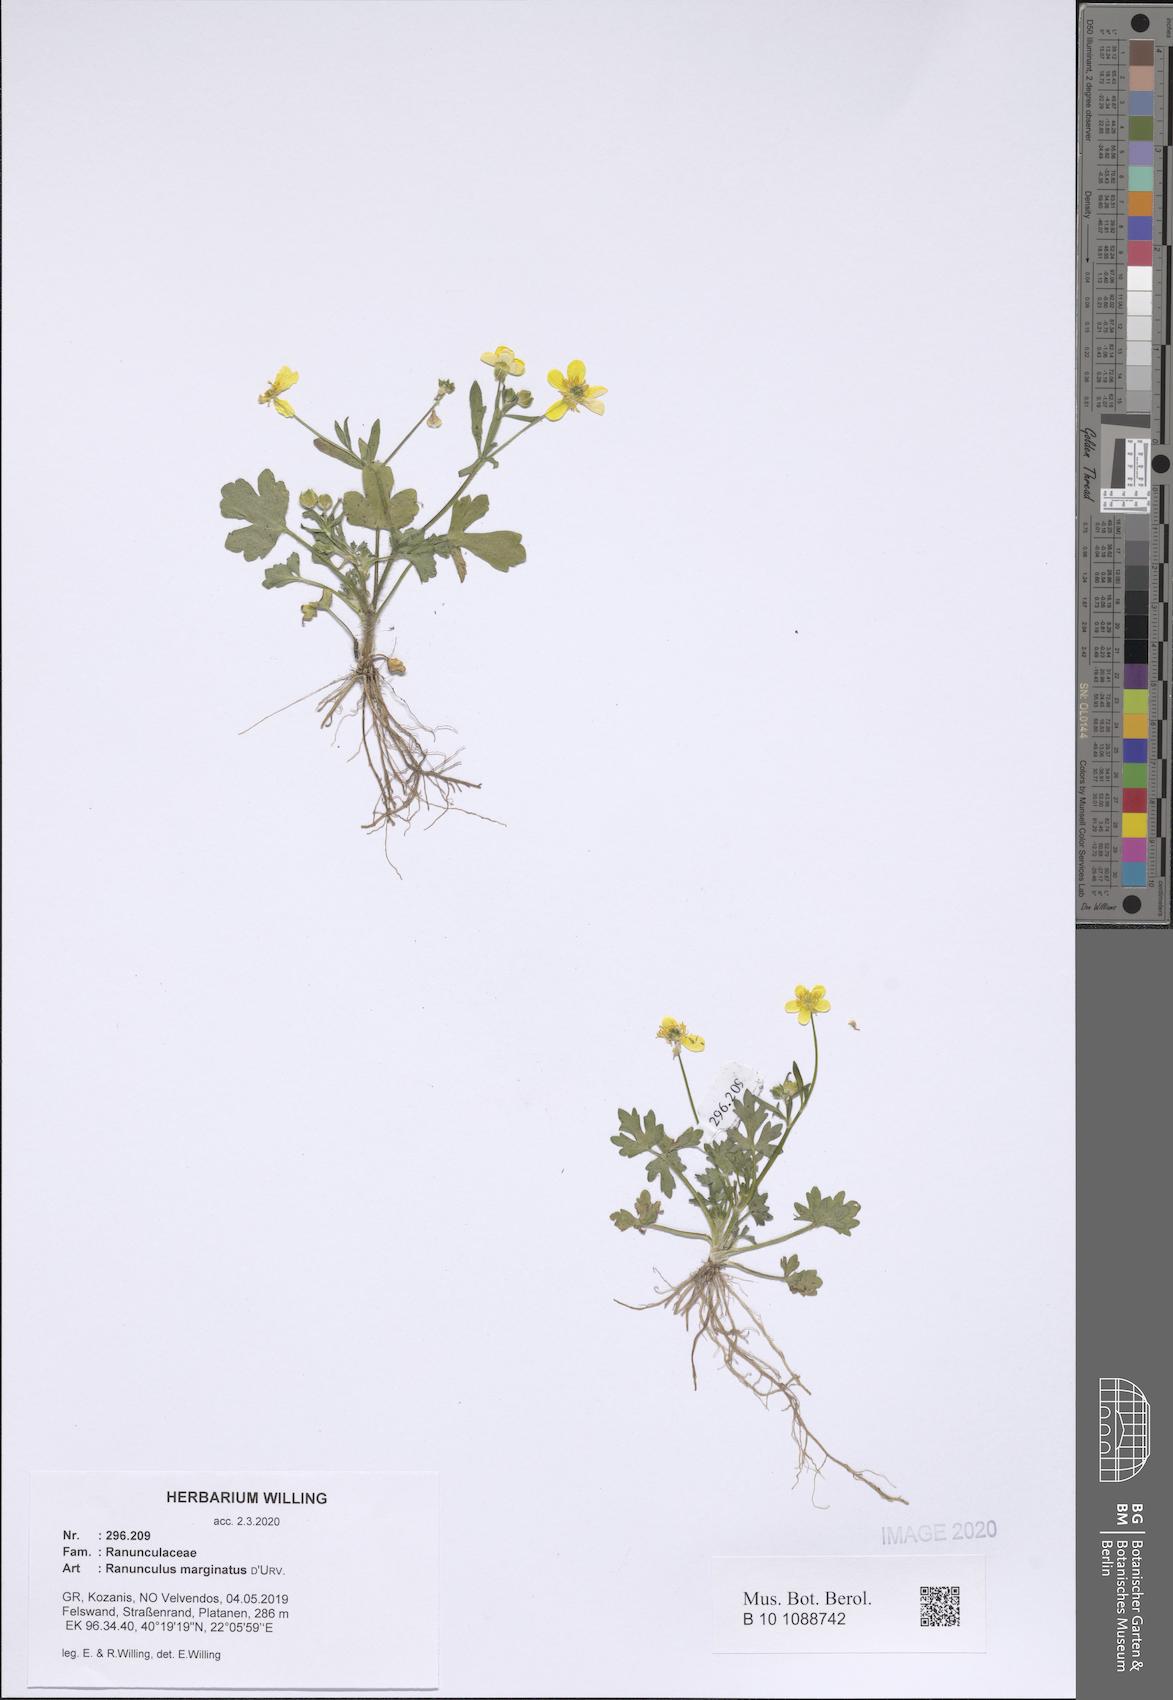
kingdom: Plantae
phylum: Tracheophyta
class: Magnoliopsida
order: Ranunculales
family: Ranunculaceae
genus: Ranunculus
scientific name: Ranunculus marginatus
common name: St. martin's buttercup
